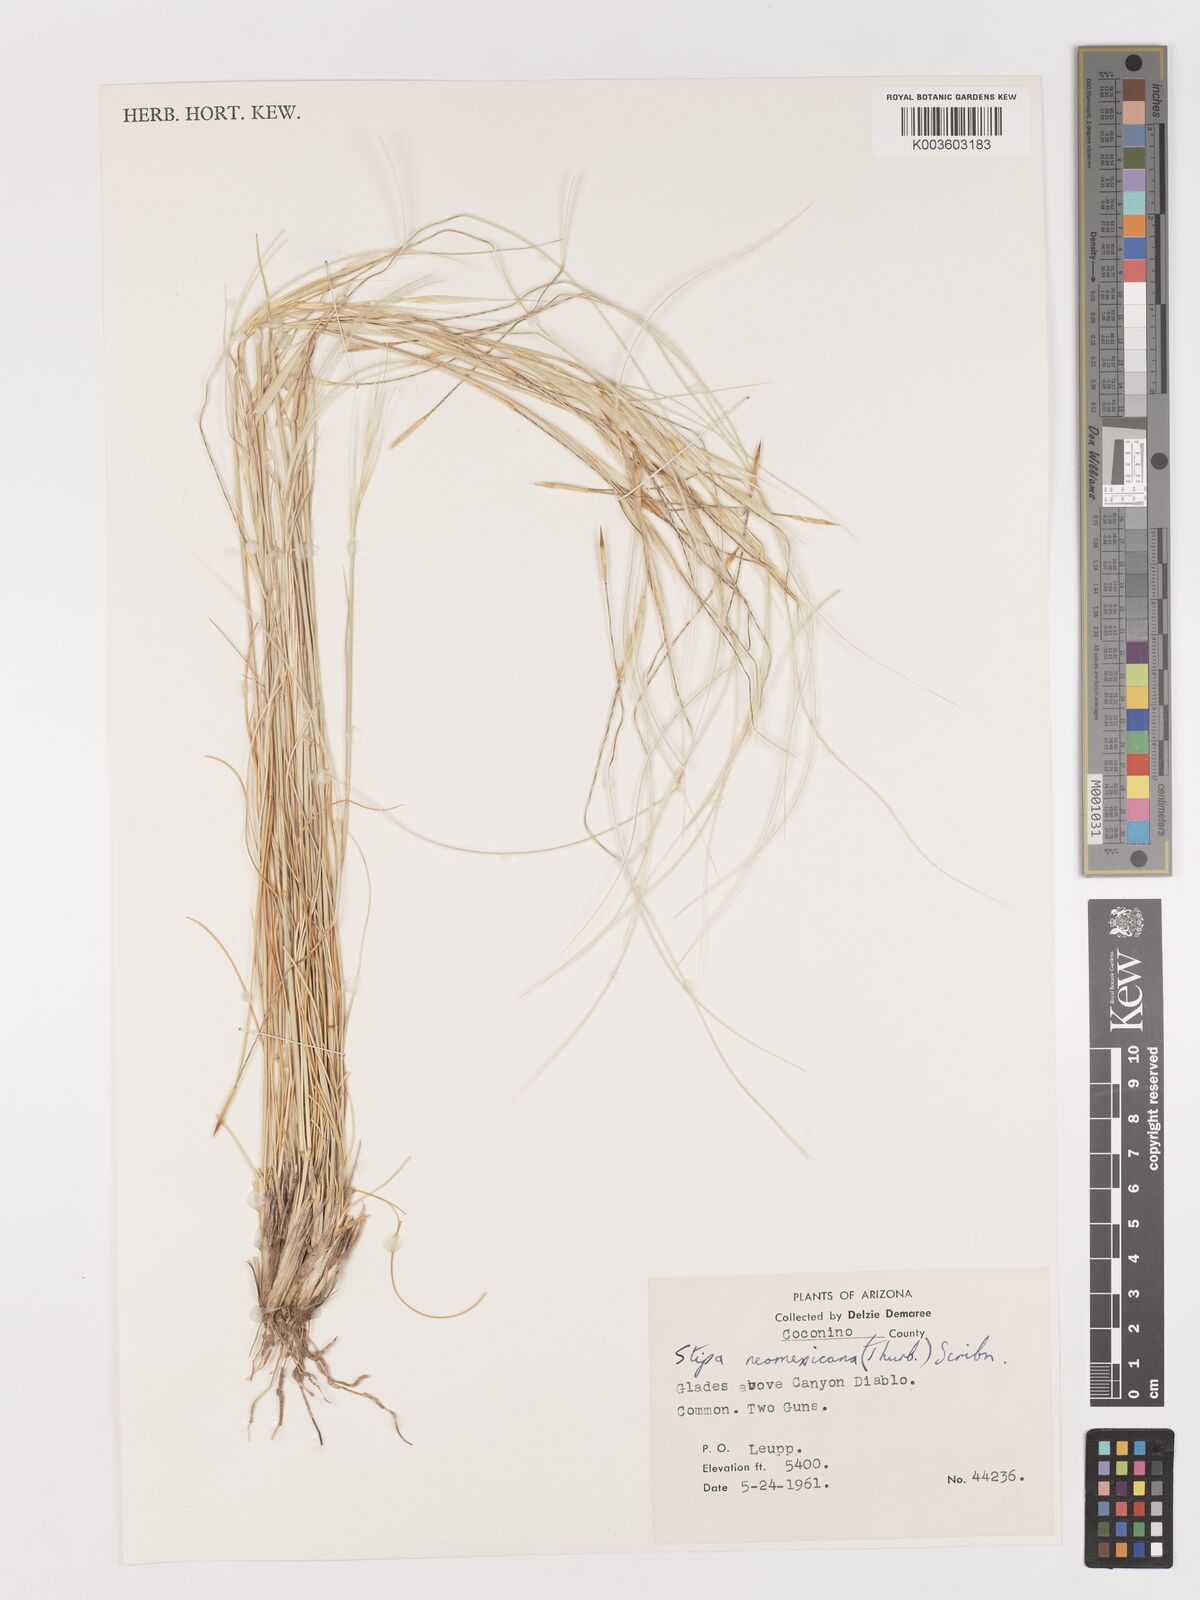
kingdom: Plantae
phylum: Tracheophyta
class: Liliopsida
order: Poales
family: Poaceae
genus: Hesperostipa
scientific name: Hesperostipa neomexicana
